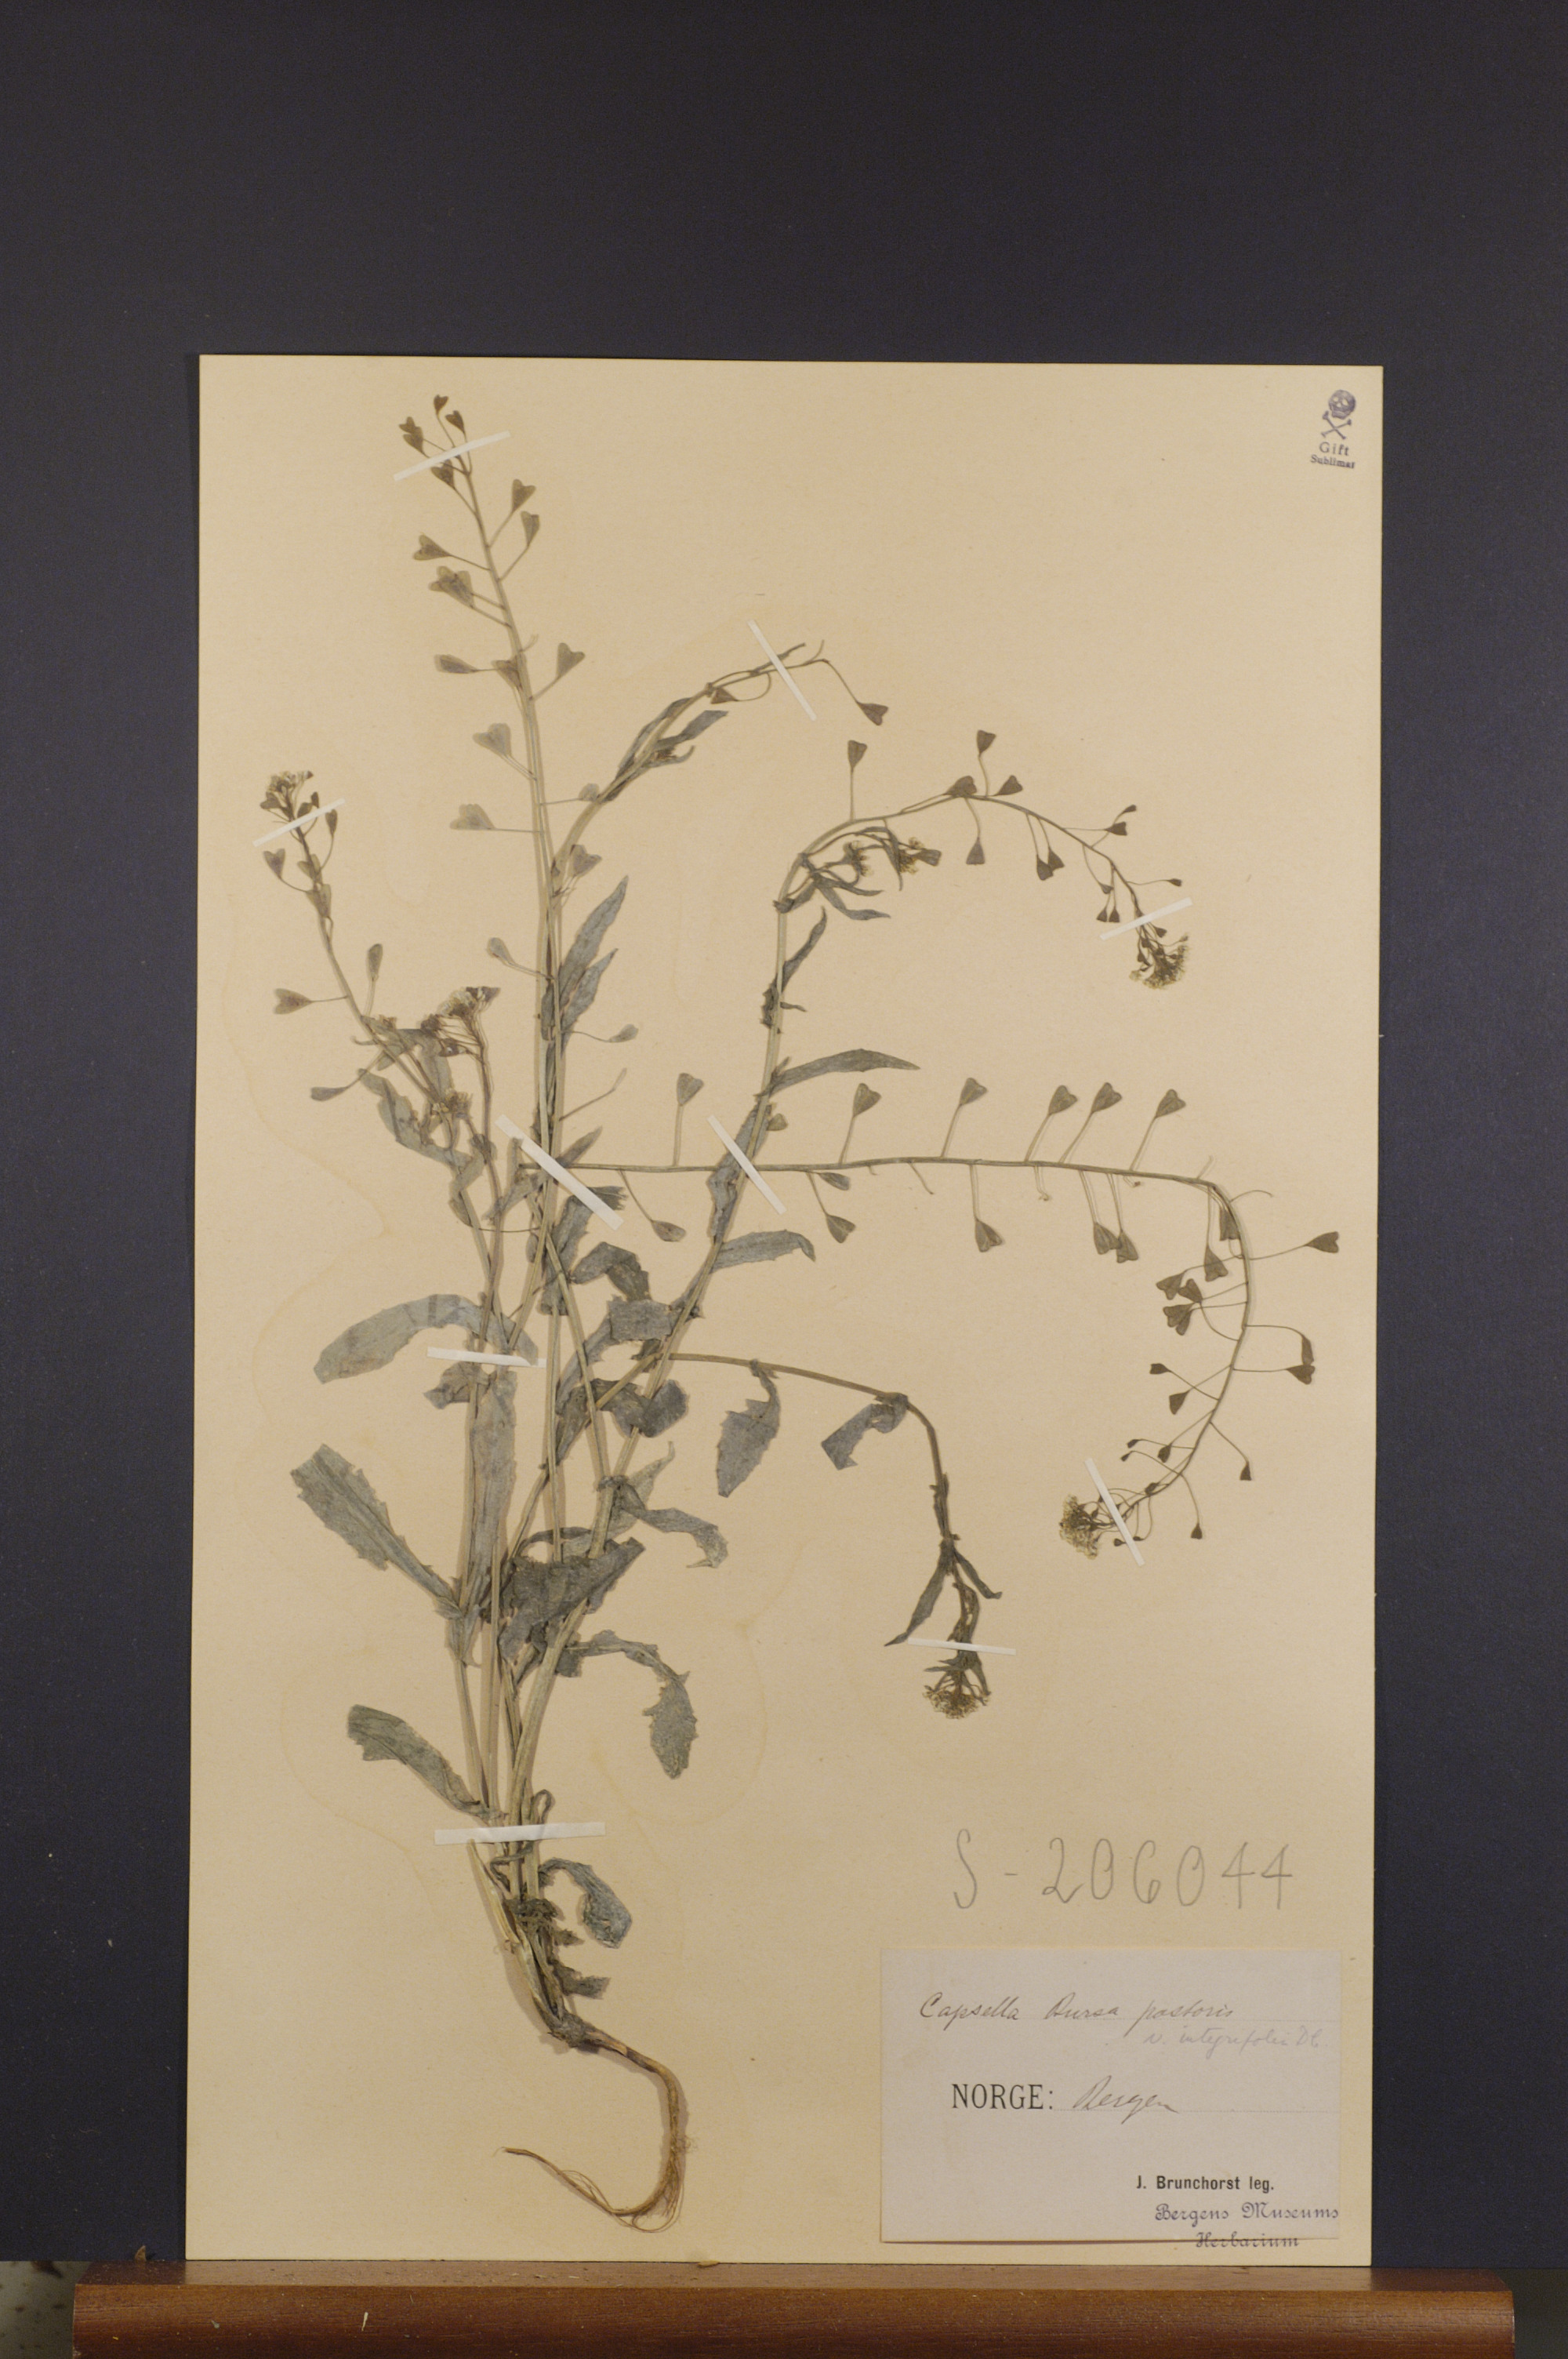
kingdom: Plantae
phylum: Tracheophyta
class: Magnoliopsida
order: Brassicales
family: Brassicaceae
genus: Capsella
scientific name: Capsella bursa-pastoris
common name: Shepherd's purse
